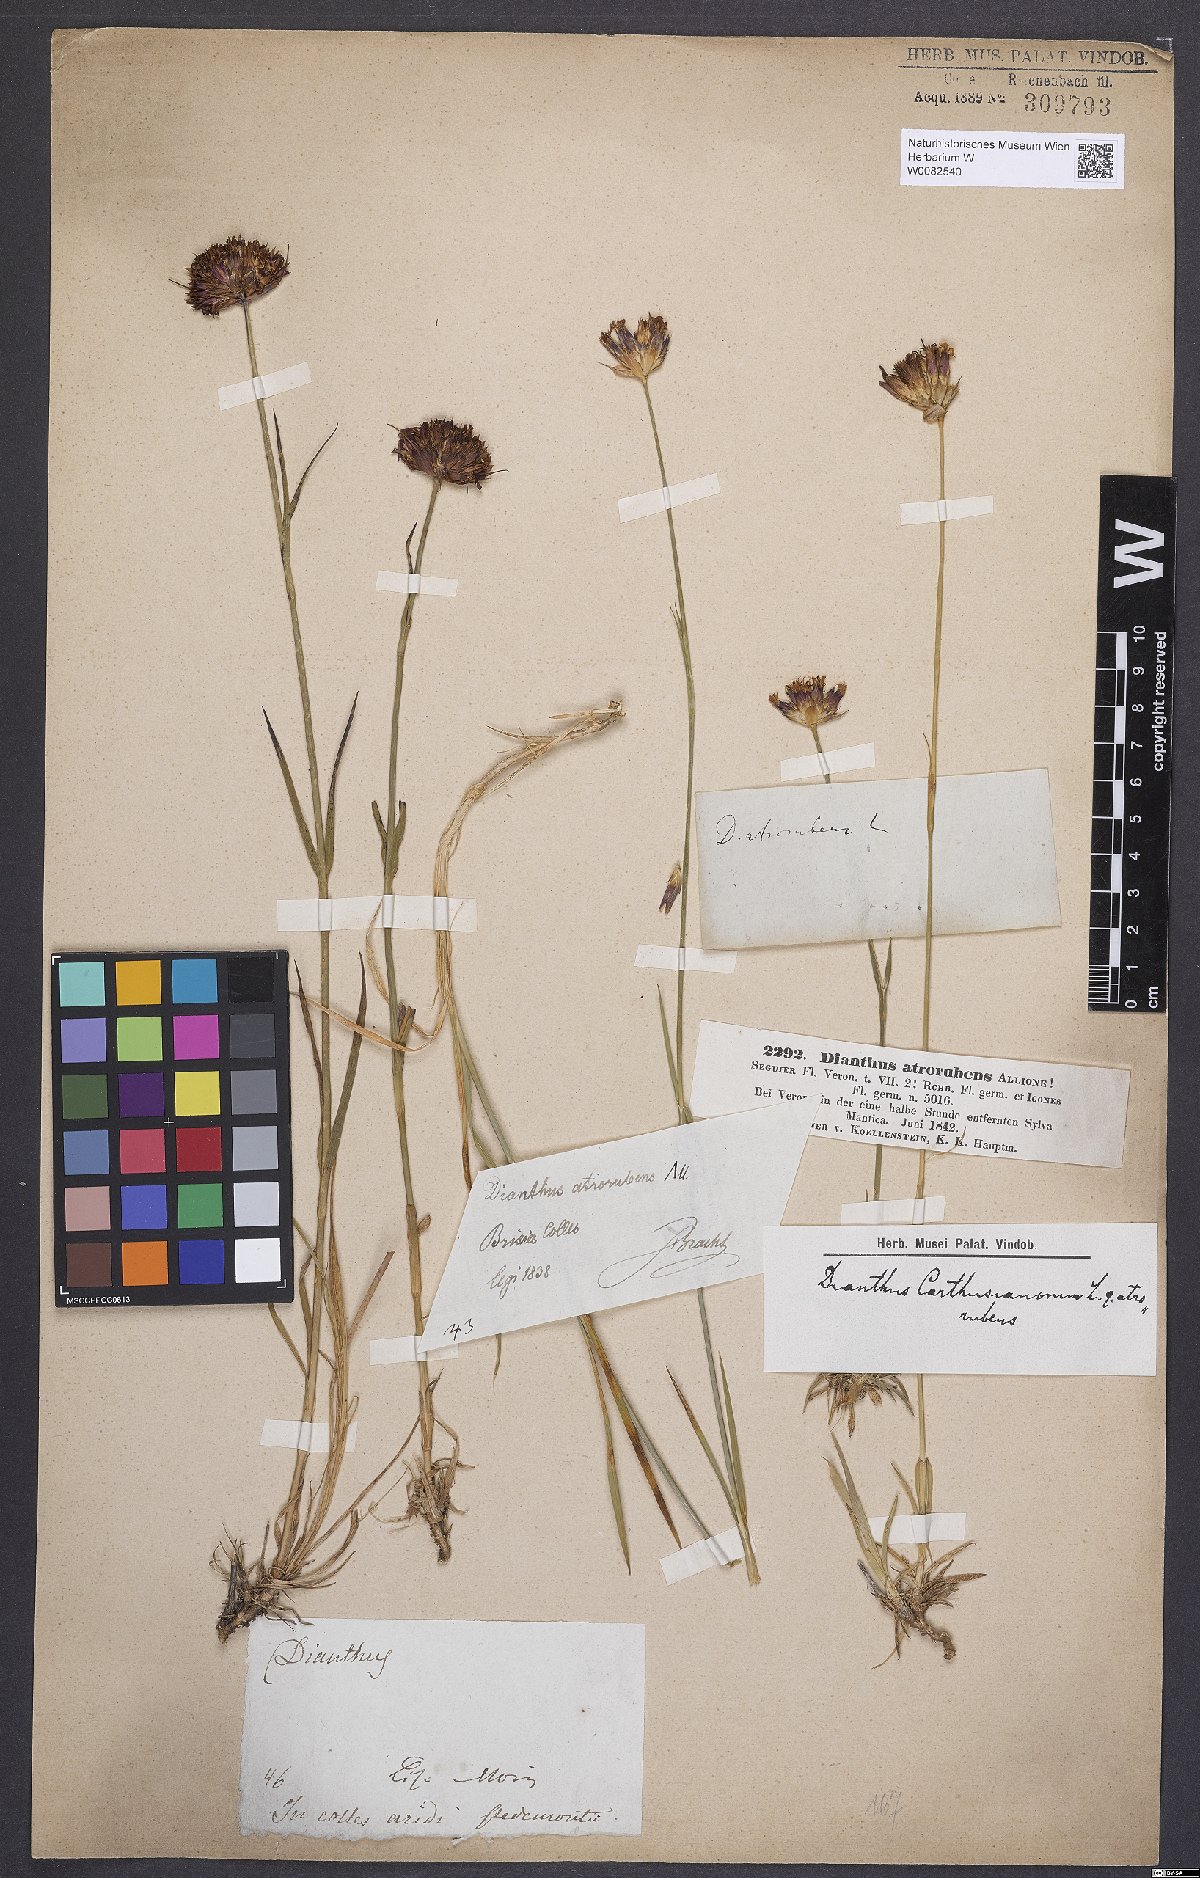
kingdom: Plantae
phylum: Tracheophyta
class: Magnoliopsida
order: Caryophyllales
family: Caryophyllaceae
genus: Dianthus
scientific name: Dianthus carthusianorum
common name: Carthusian pink
